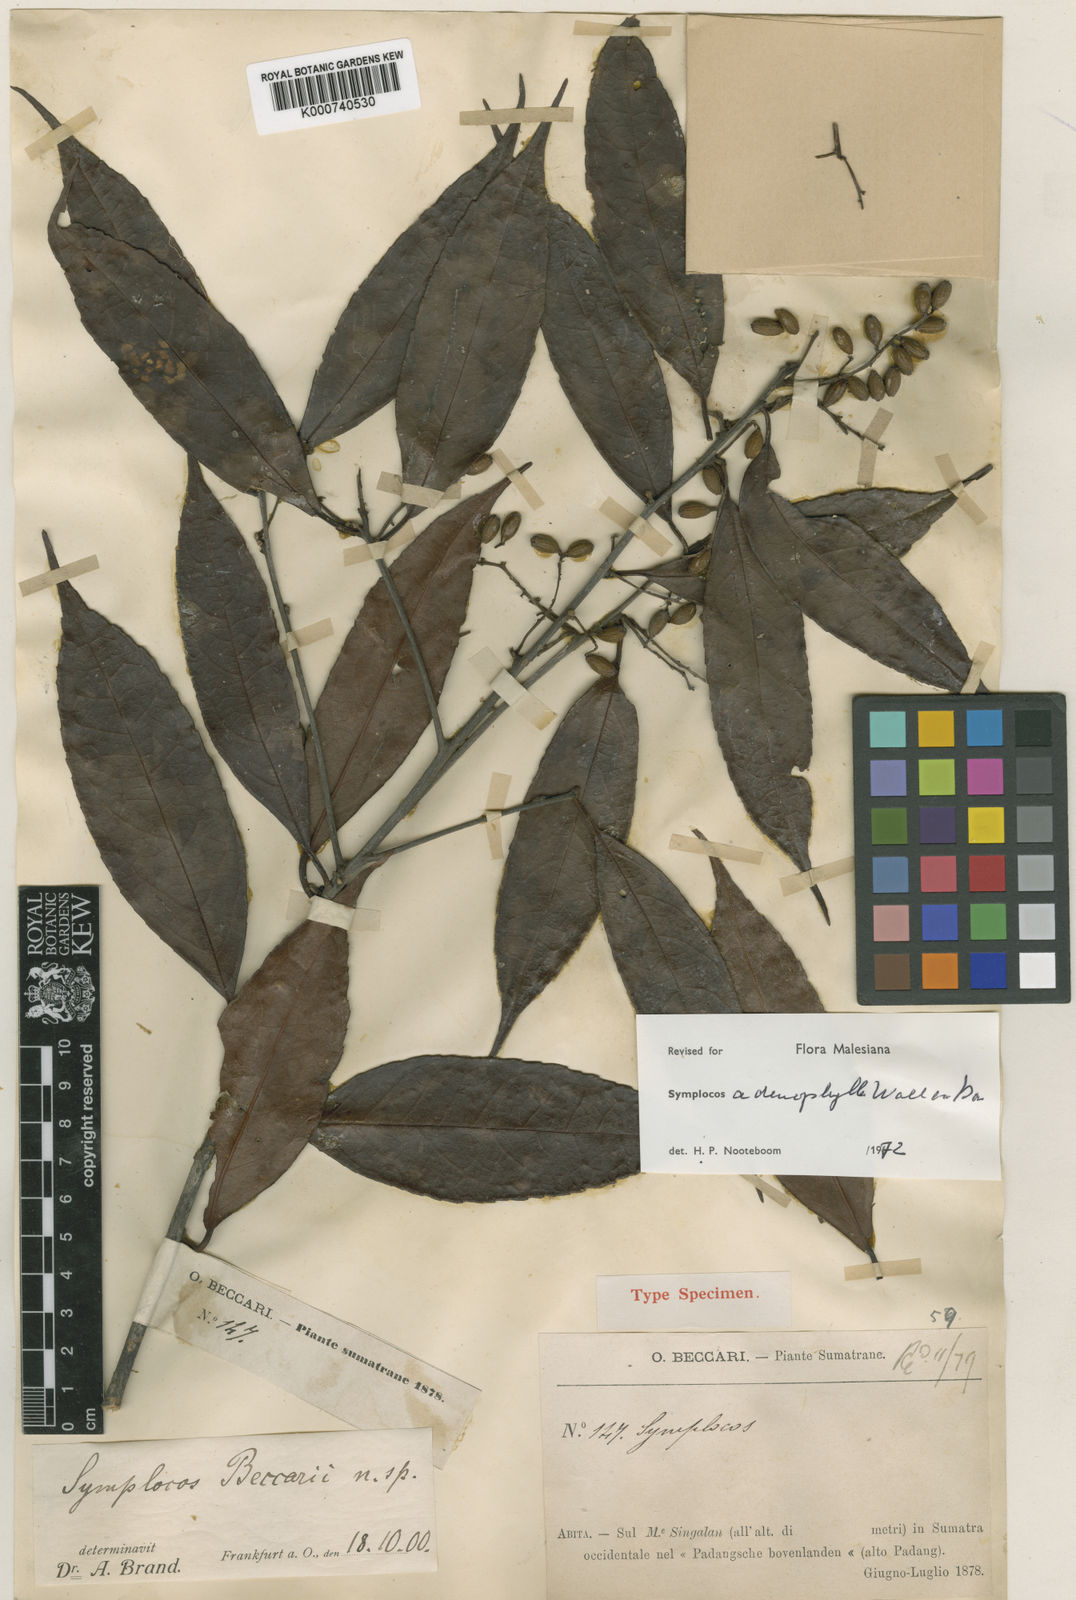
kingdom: Plantae
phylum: Tracheophyta
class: Magnoliopsida
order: Ericales
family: Symplocaceae
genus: Symplocos
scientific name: Symplocos
